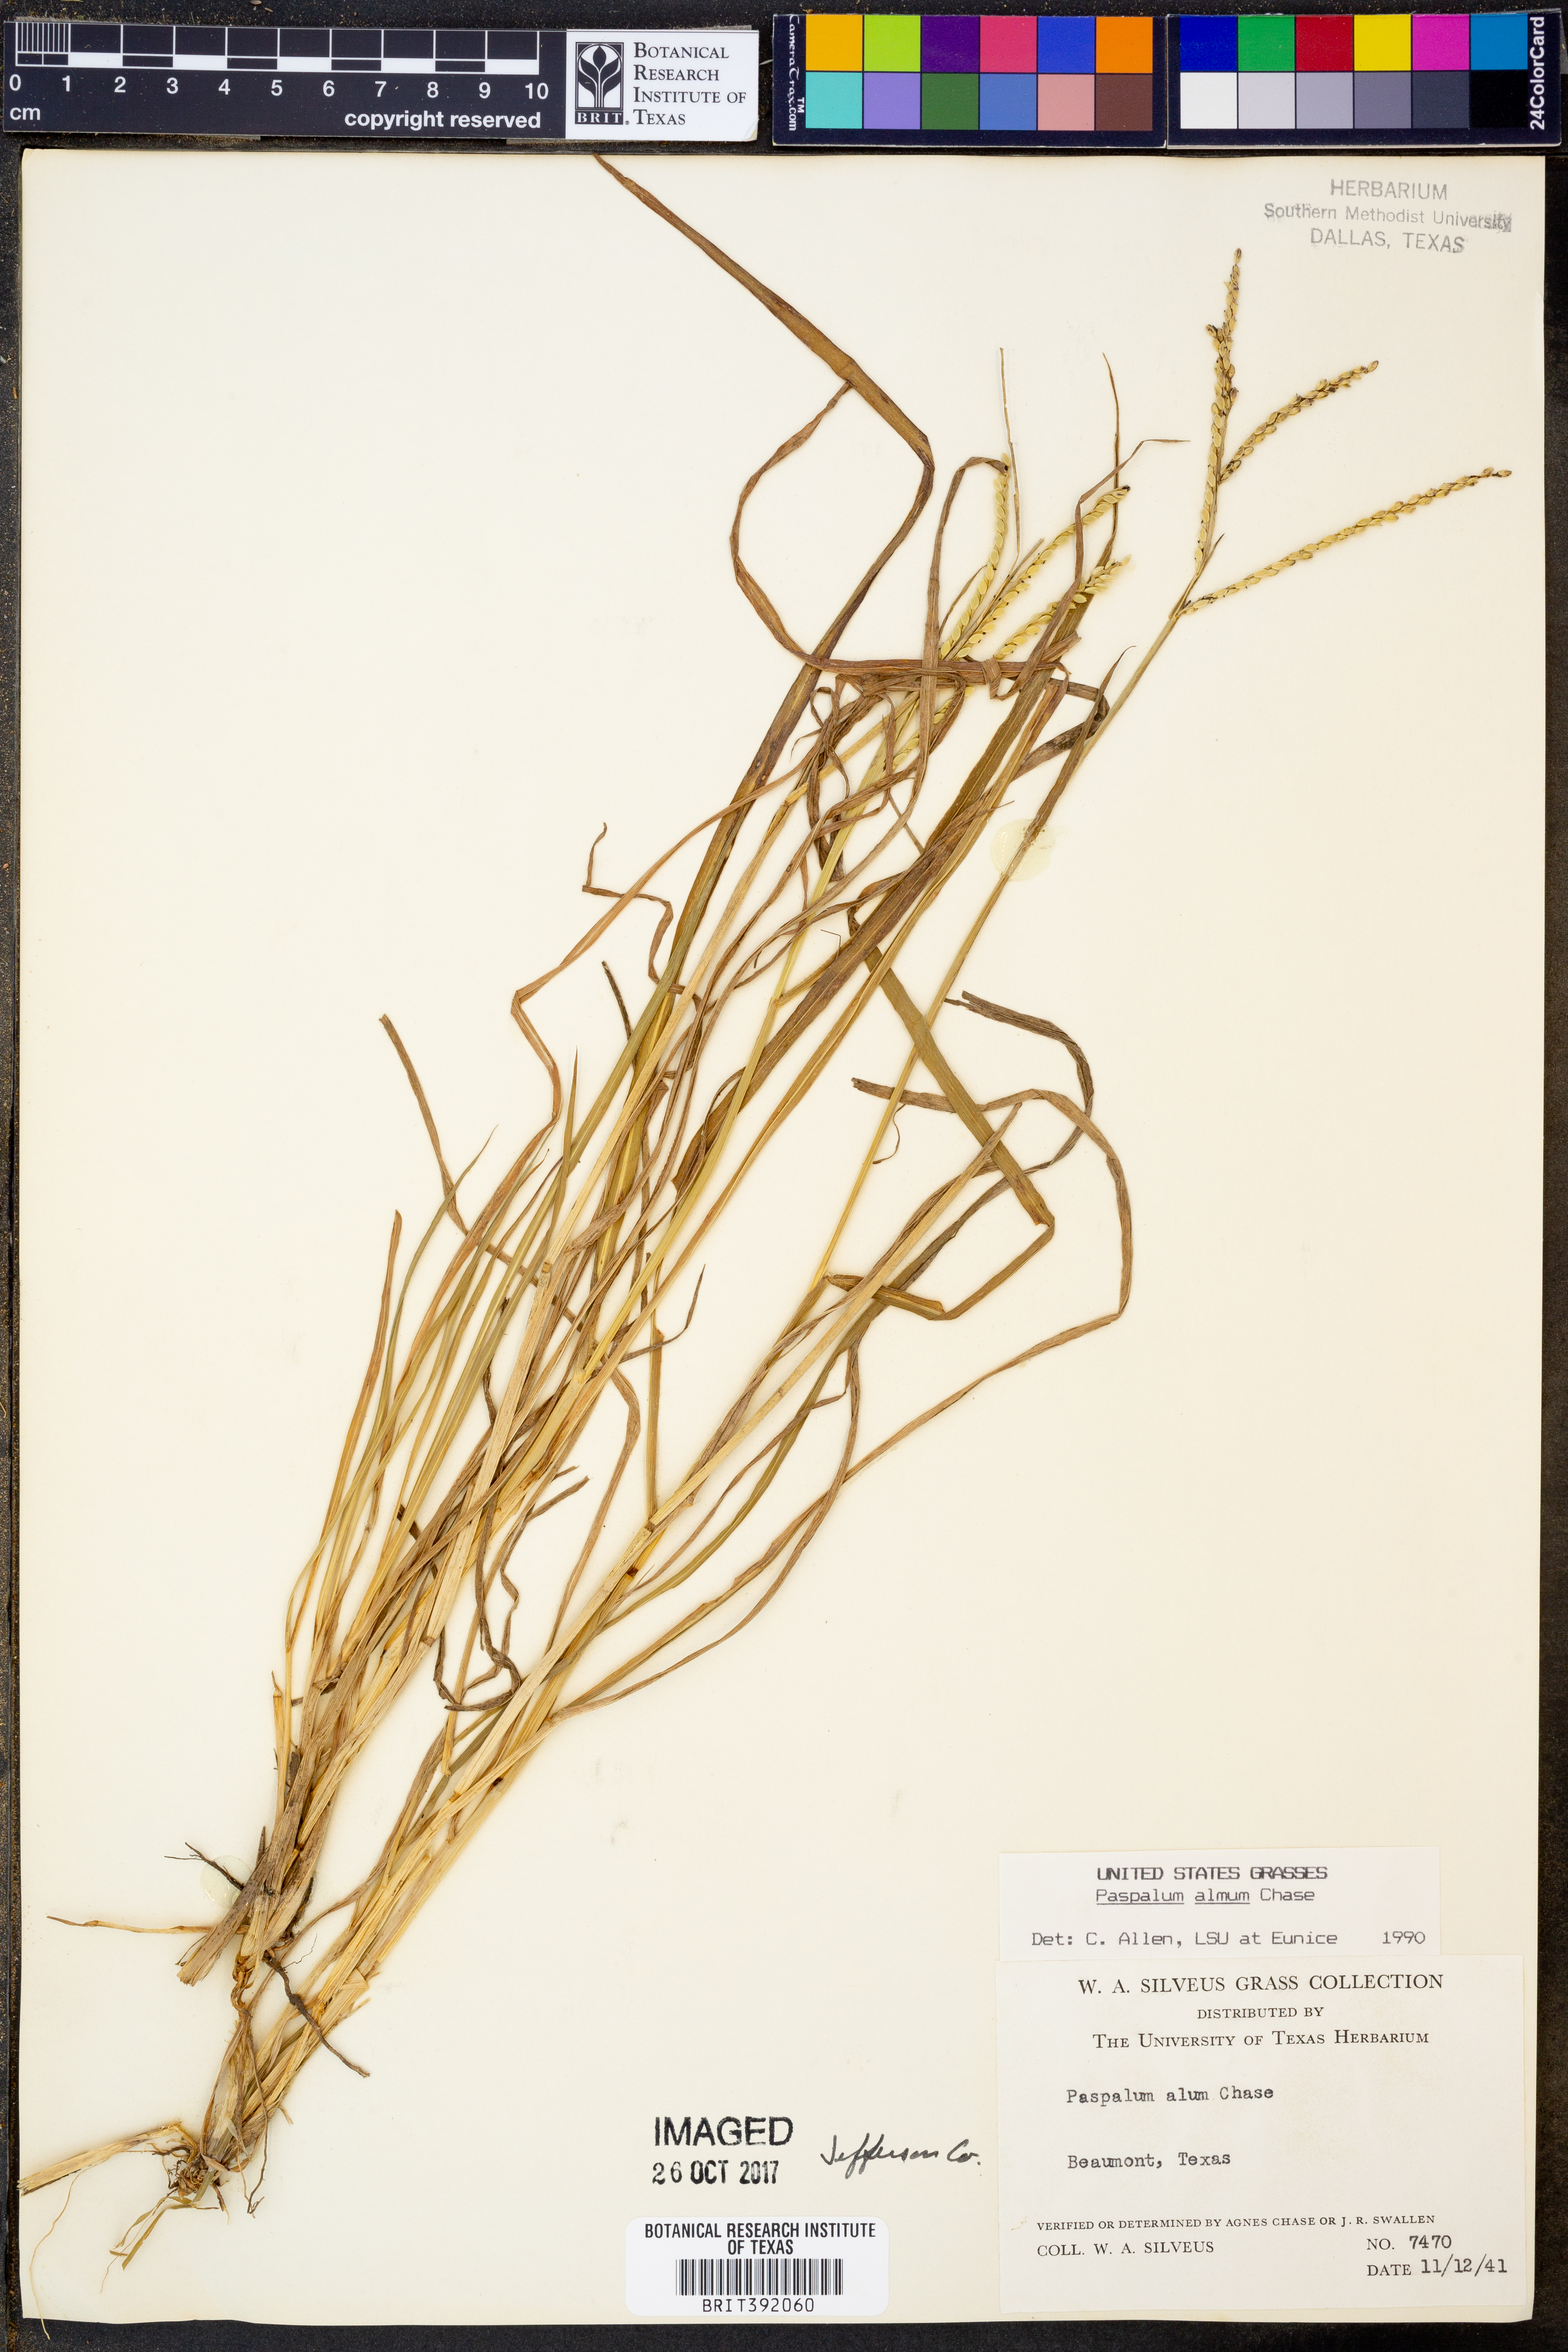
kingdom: Plantae
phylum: Tracheophyta
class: Liliopsida
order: Poales
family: Poaceae
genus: Paspalum
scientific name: Paspalum almum
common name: Comb's crowngrass
